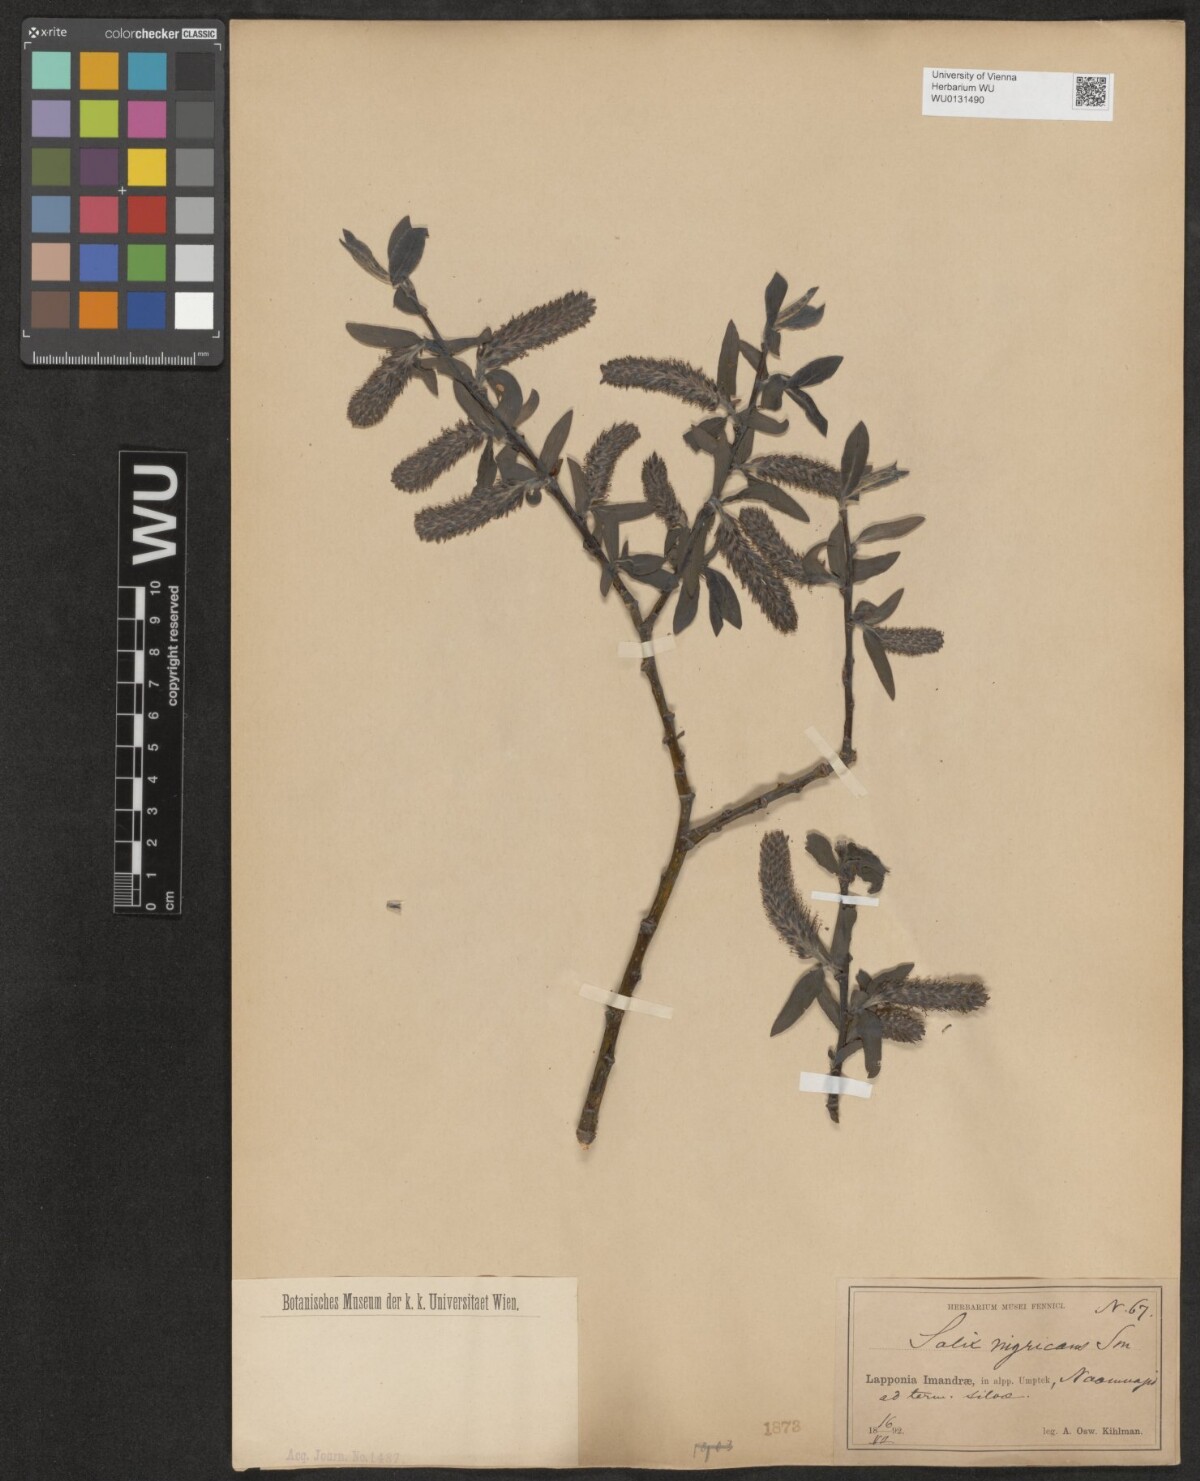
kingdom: Plantae
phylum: Tracheophyta
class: Magnoliopsida
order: Malpighiales
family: Salicaceae
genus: Salix
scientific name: Salix myrsinifolia
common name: Dark-leaved willow
